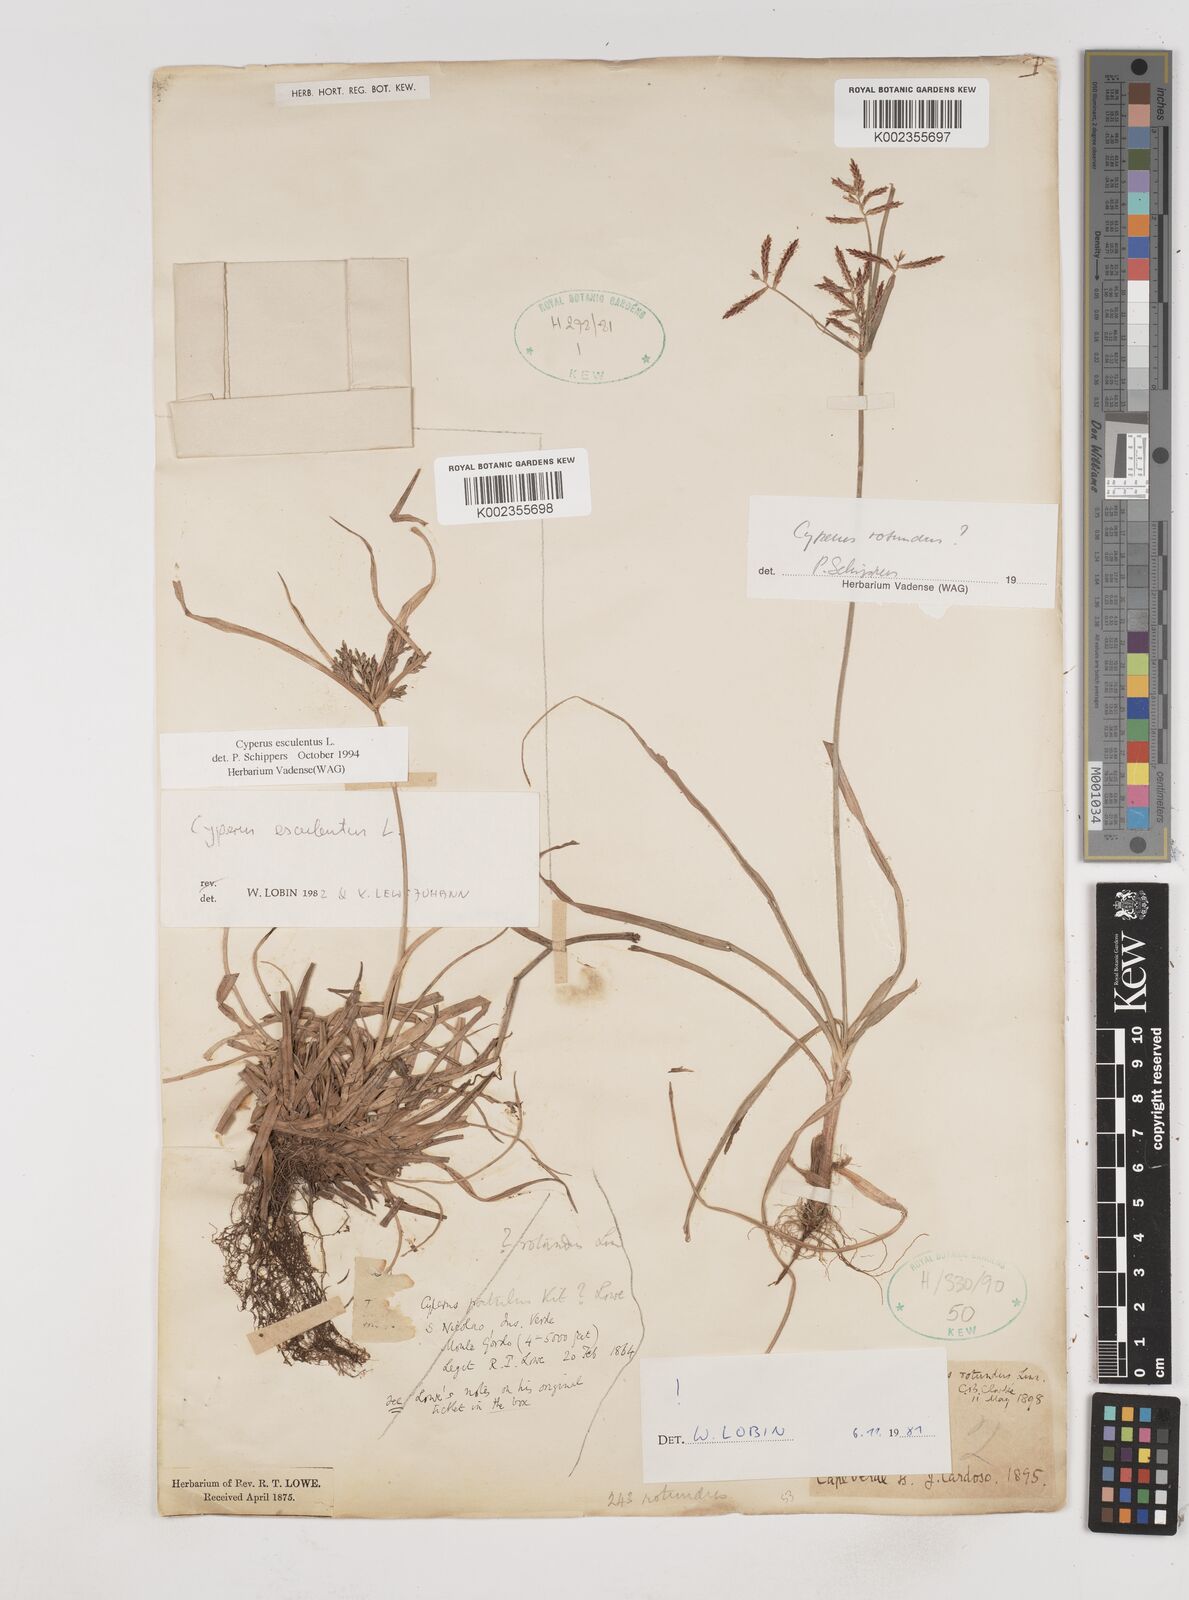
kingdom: Plantae
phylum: Tracheophyta
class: Liliopsida
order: Poales
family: Cyperaceae
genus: Cyperus
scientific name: Cyperus esculentus
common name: Yellow nutsedge
